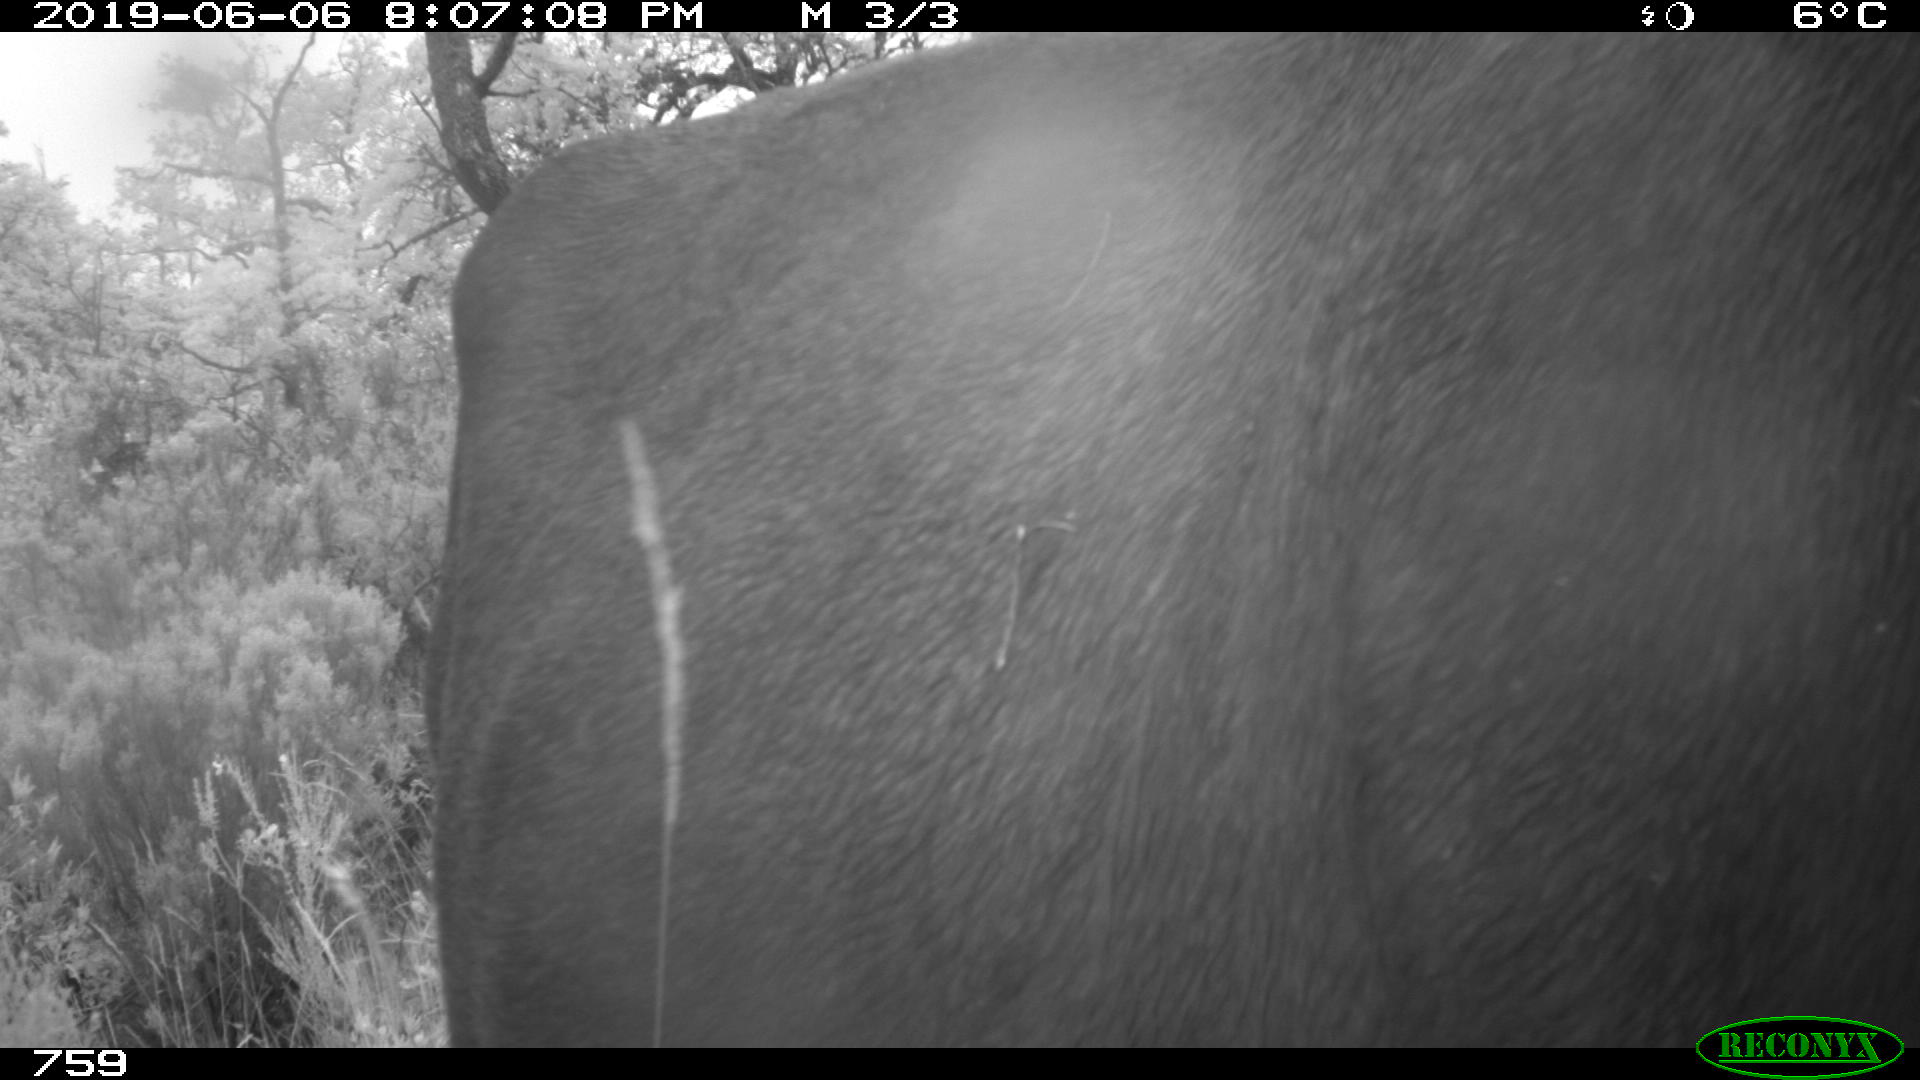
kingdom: Animalia
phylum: Chordata
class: Mammalia
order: Artiodactyla
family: Bovidae
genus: Bos
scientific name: Bos taurus
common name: Domesticated cattle
